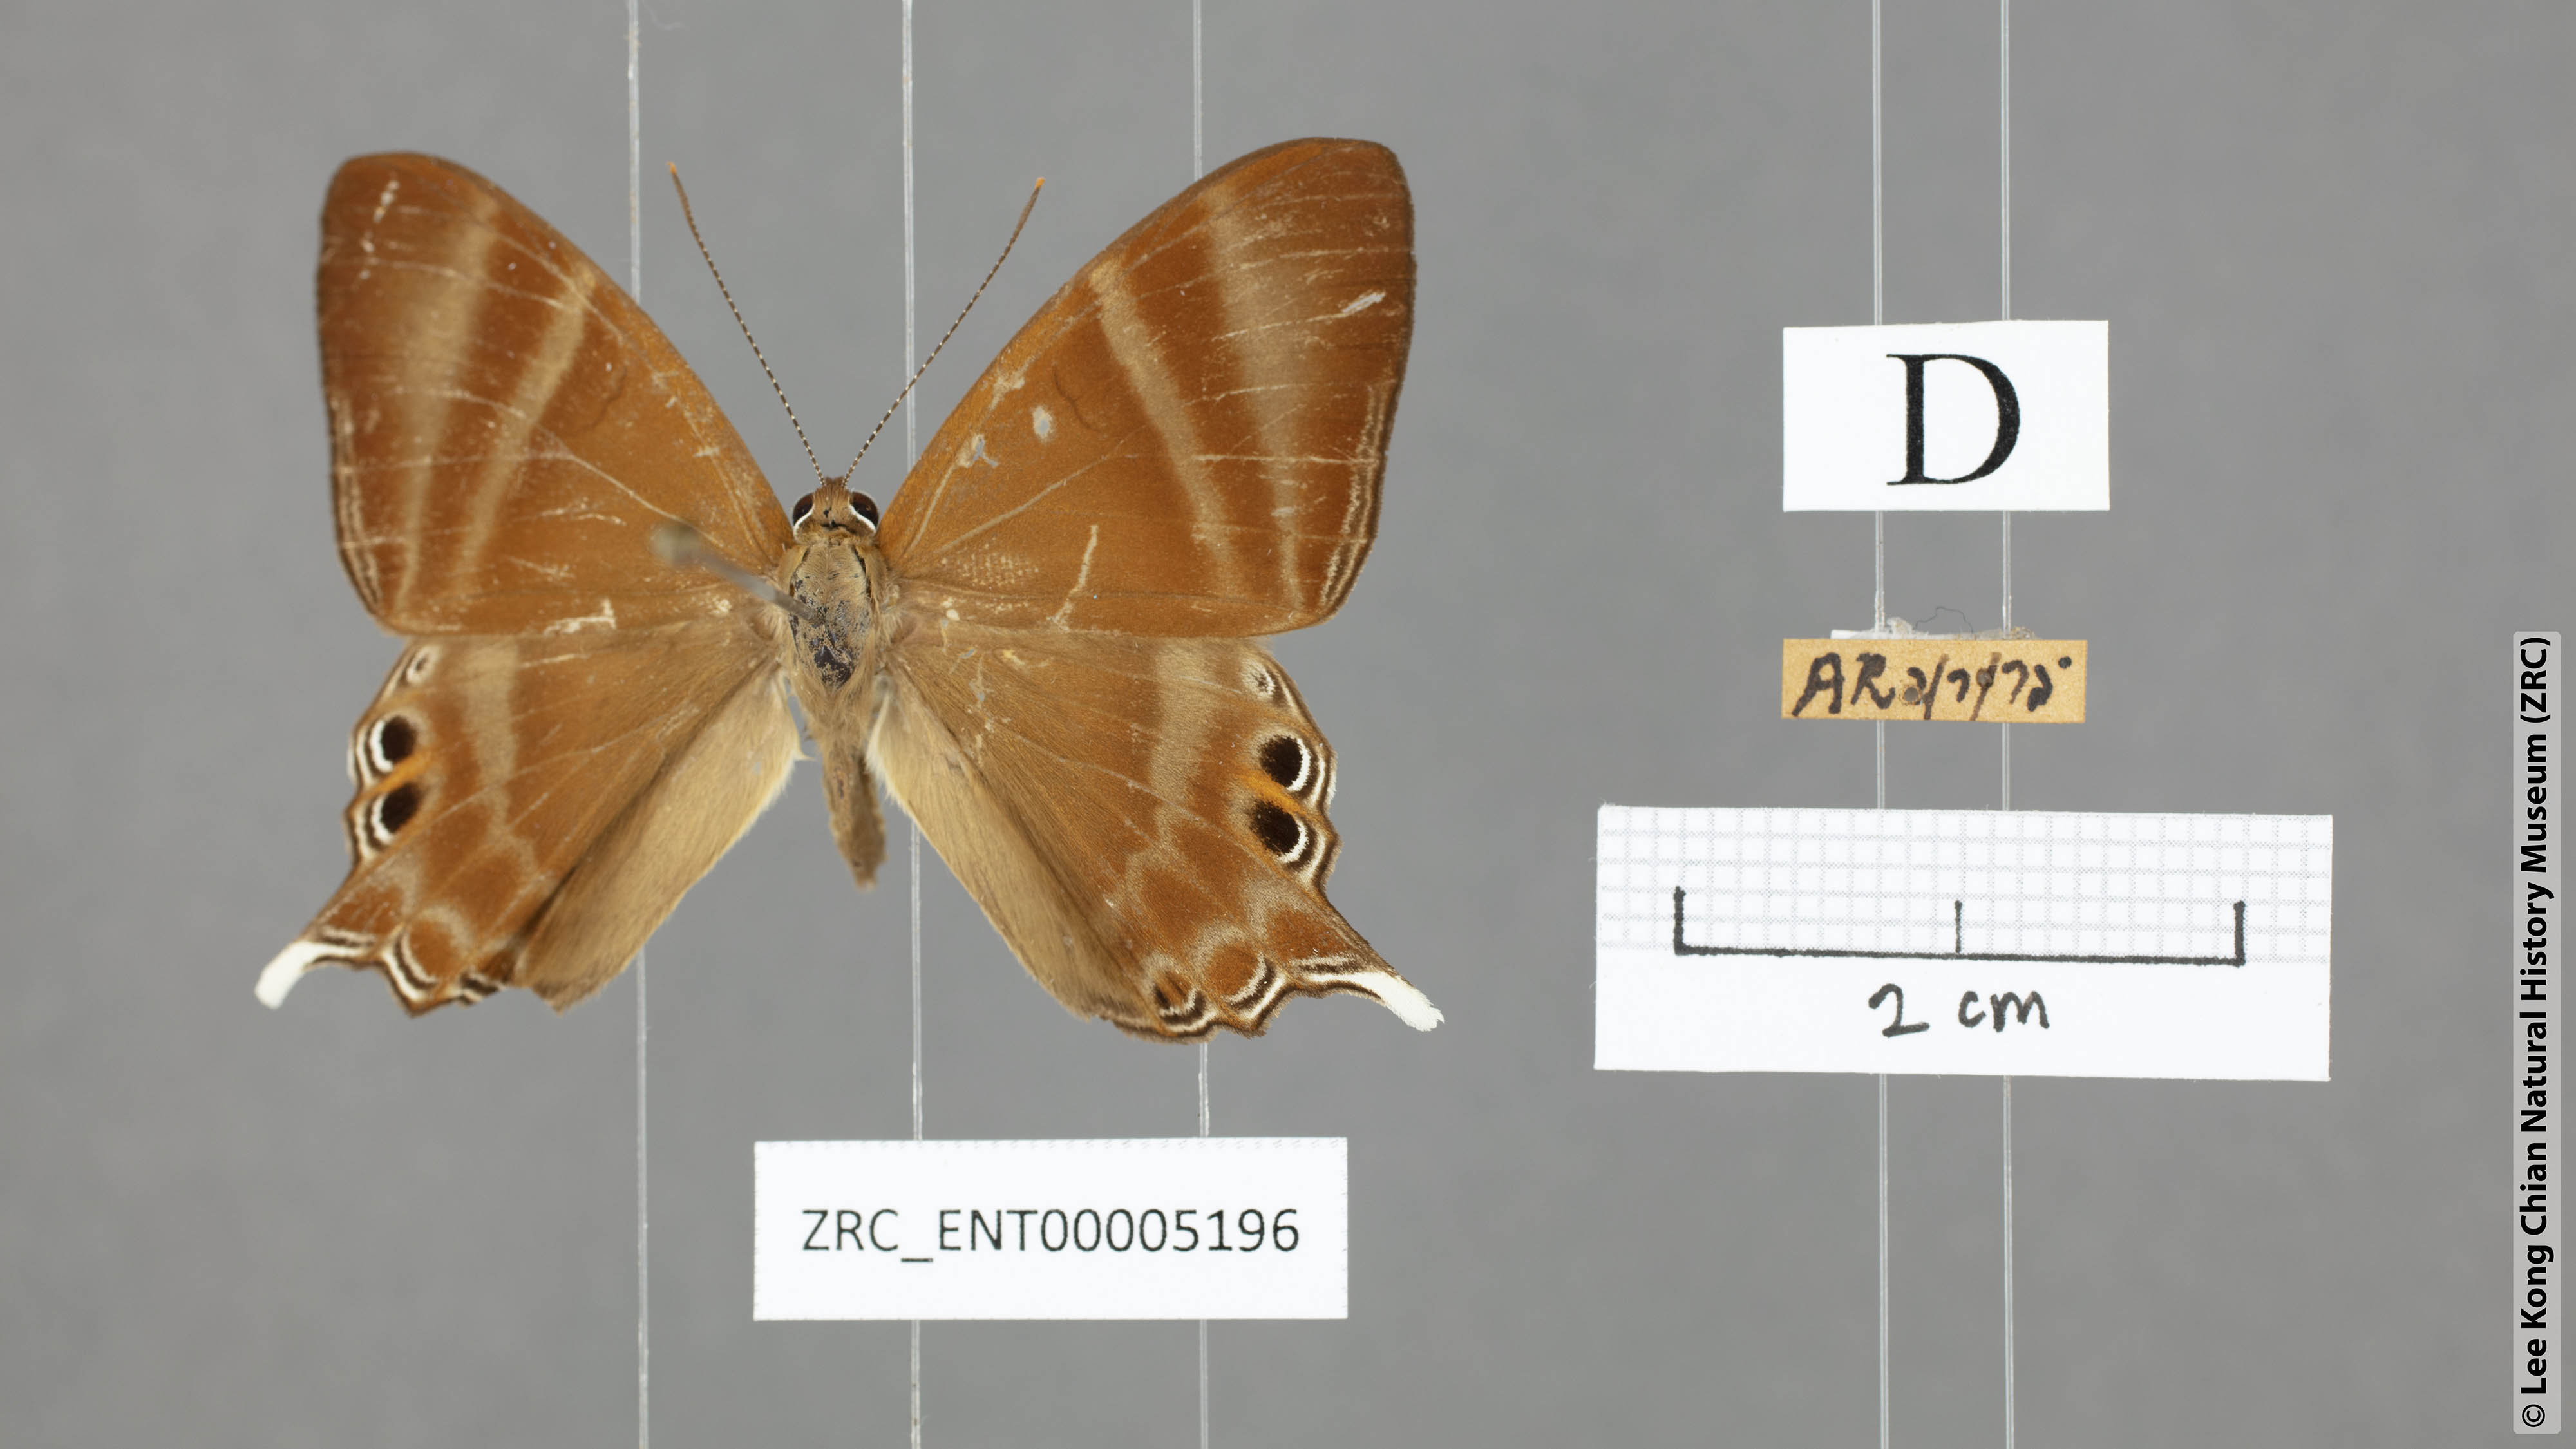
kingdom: Animalia
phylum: Arthropoda
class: Insecta
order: Lepidoptera
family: Riodinidae
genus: Archigenes
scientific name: Archigenes savitri
